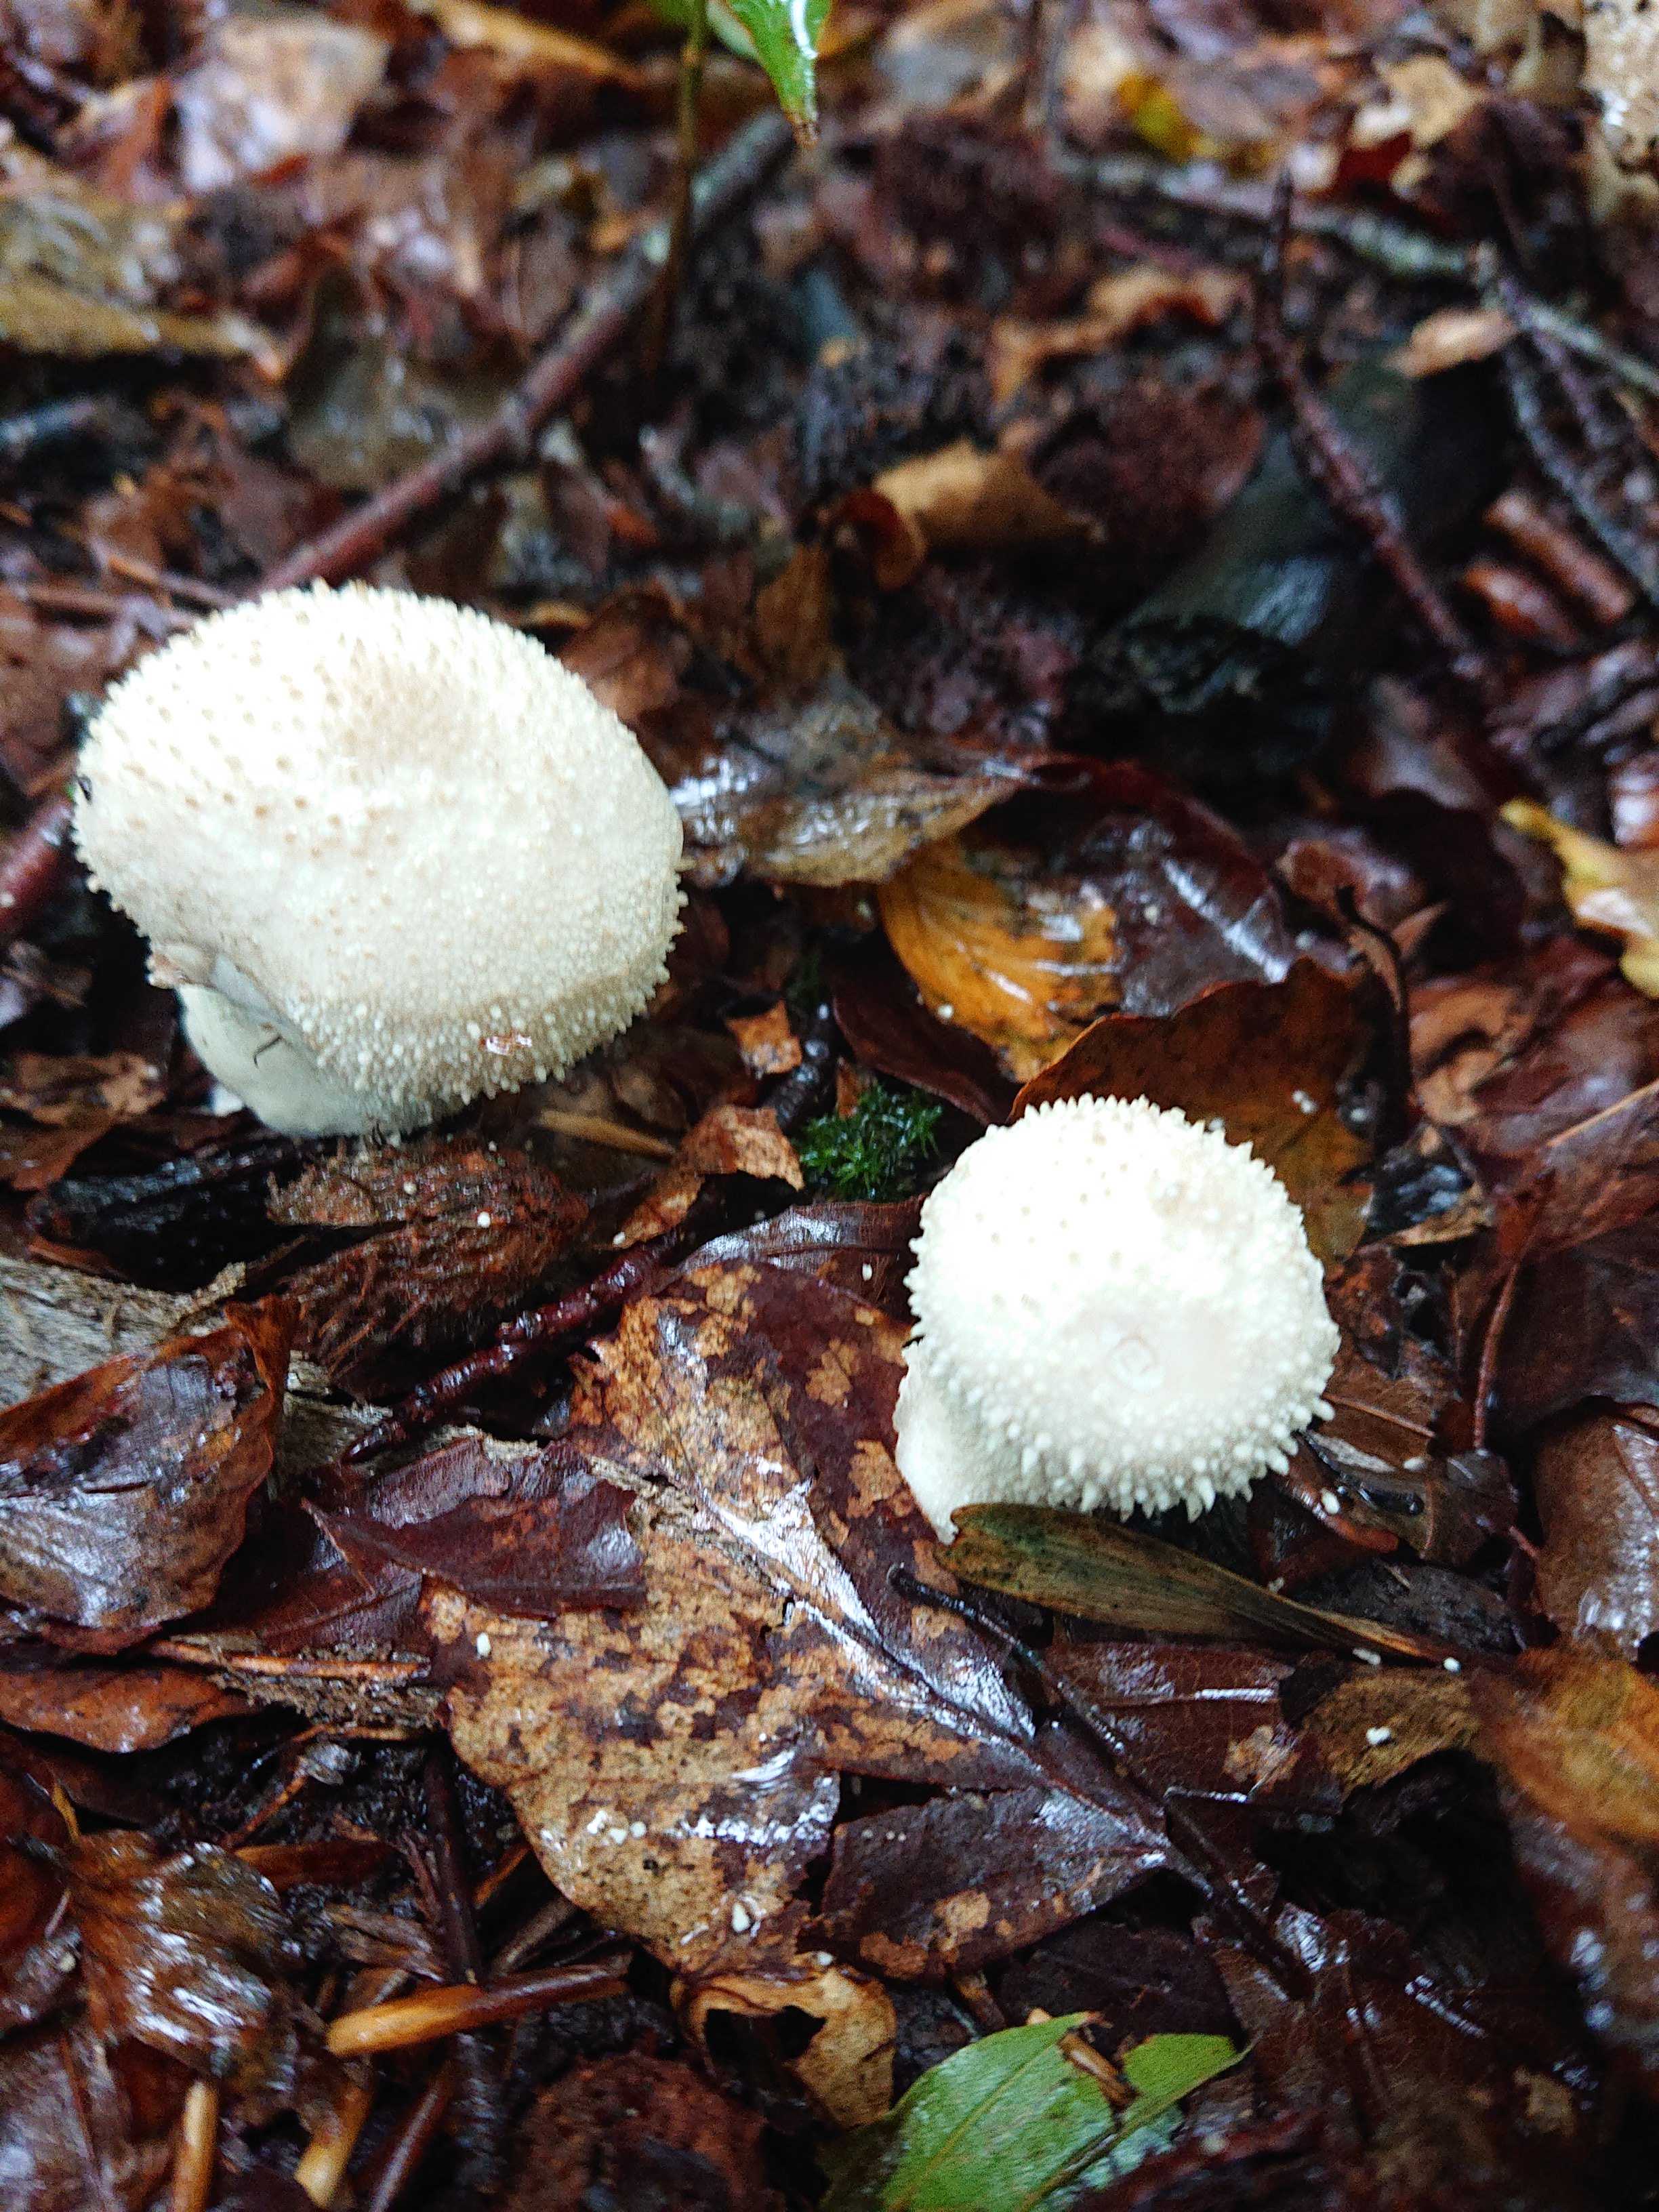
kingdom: Fungi
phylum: Basidiomycota
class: Agaricomycetes
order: Agaricales
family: Lycoperdaceae
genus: Lycoperdon
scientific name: Lycoperdon perlatum
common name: krystal-støvbold
